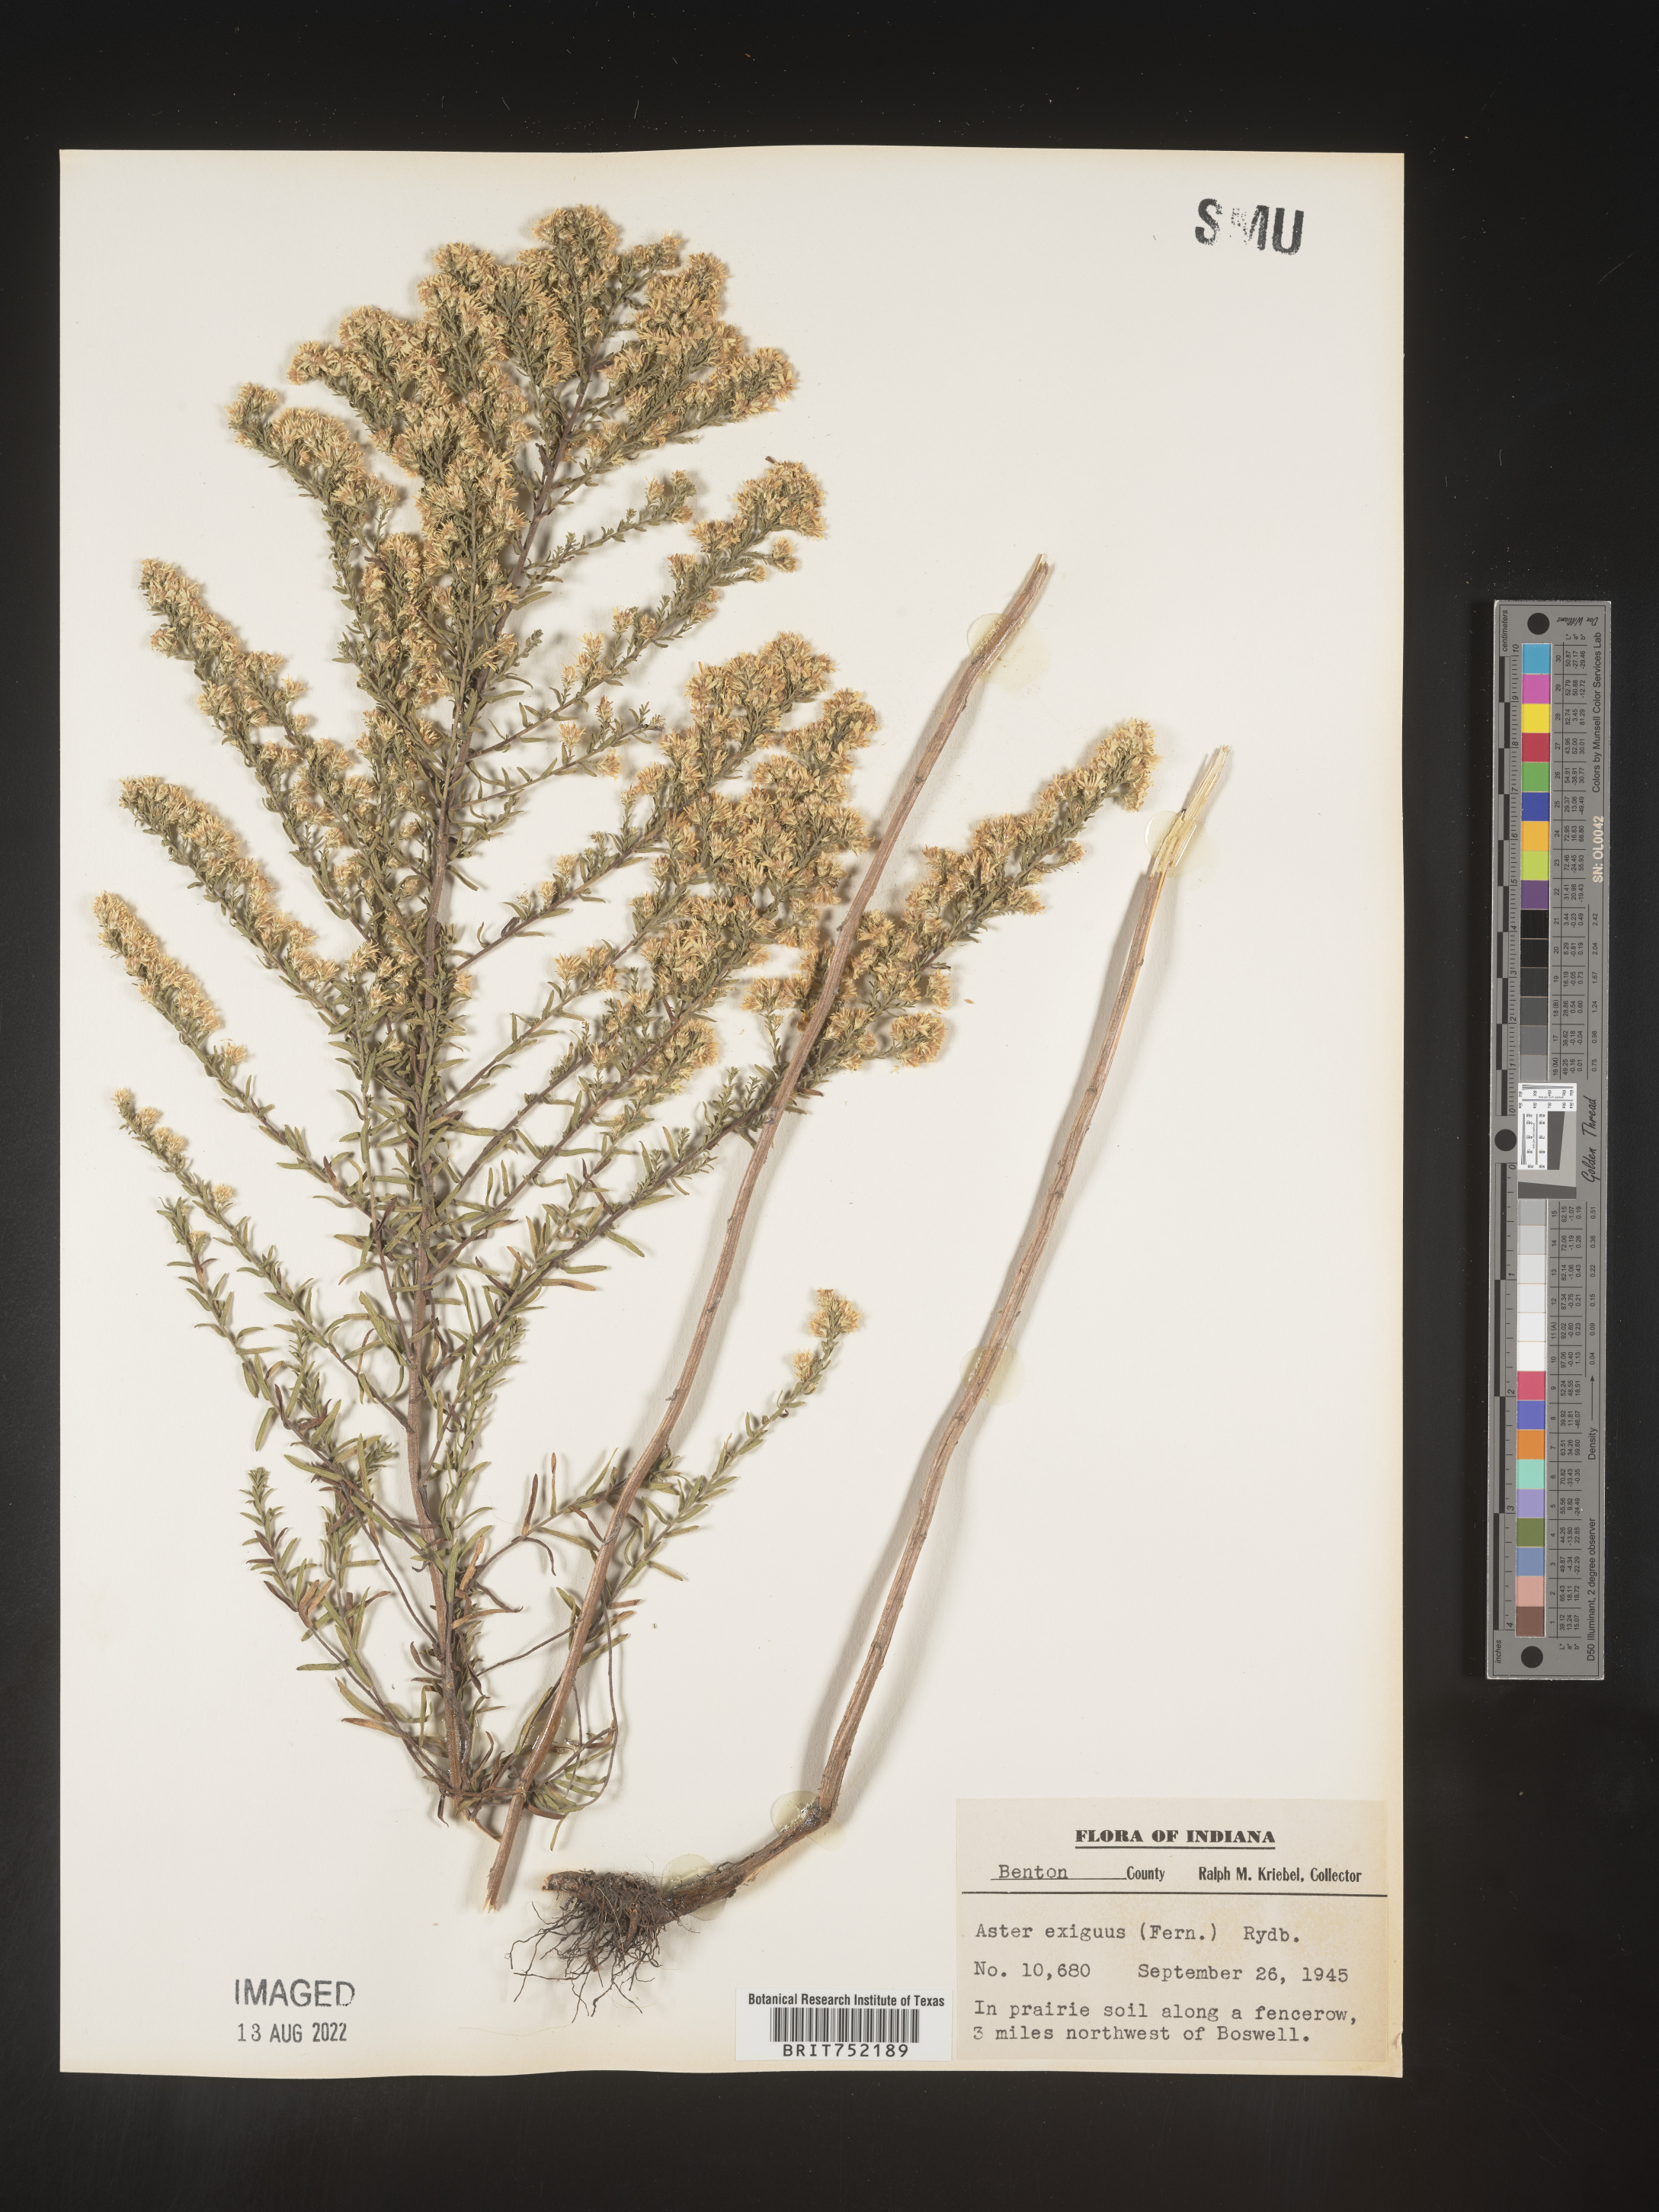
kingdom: Plantae
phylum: Tracheophyta
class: Magnoliopsida
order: Asterales
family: Asteraceae
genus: Symphyotrichum
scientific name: Symphyotrichum ericoides
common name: Heath aster
